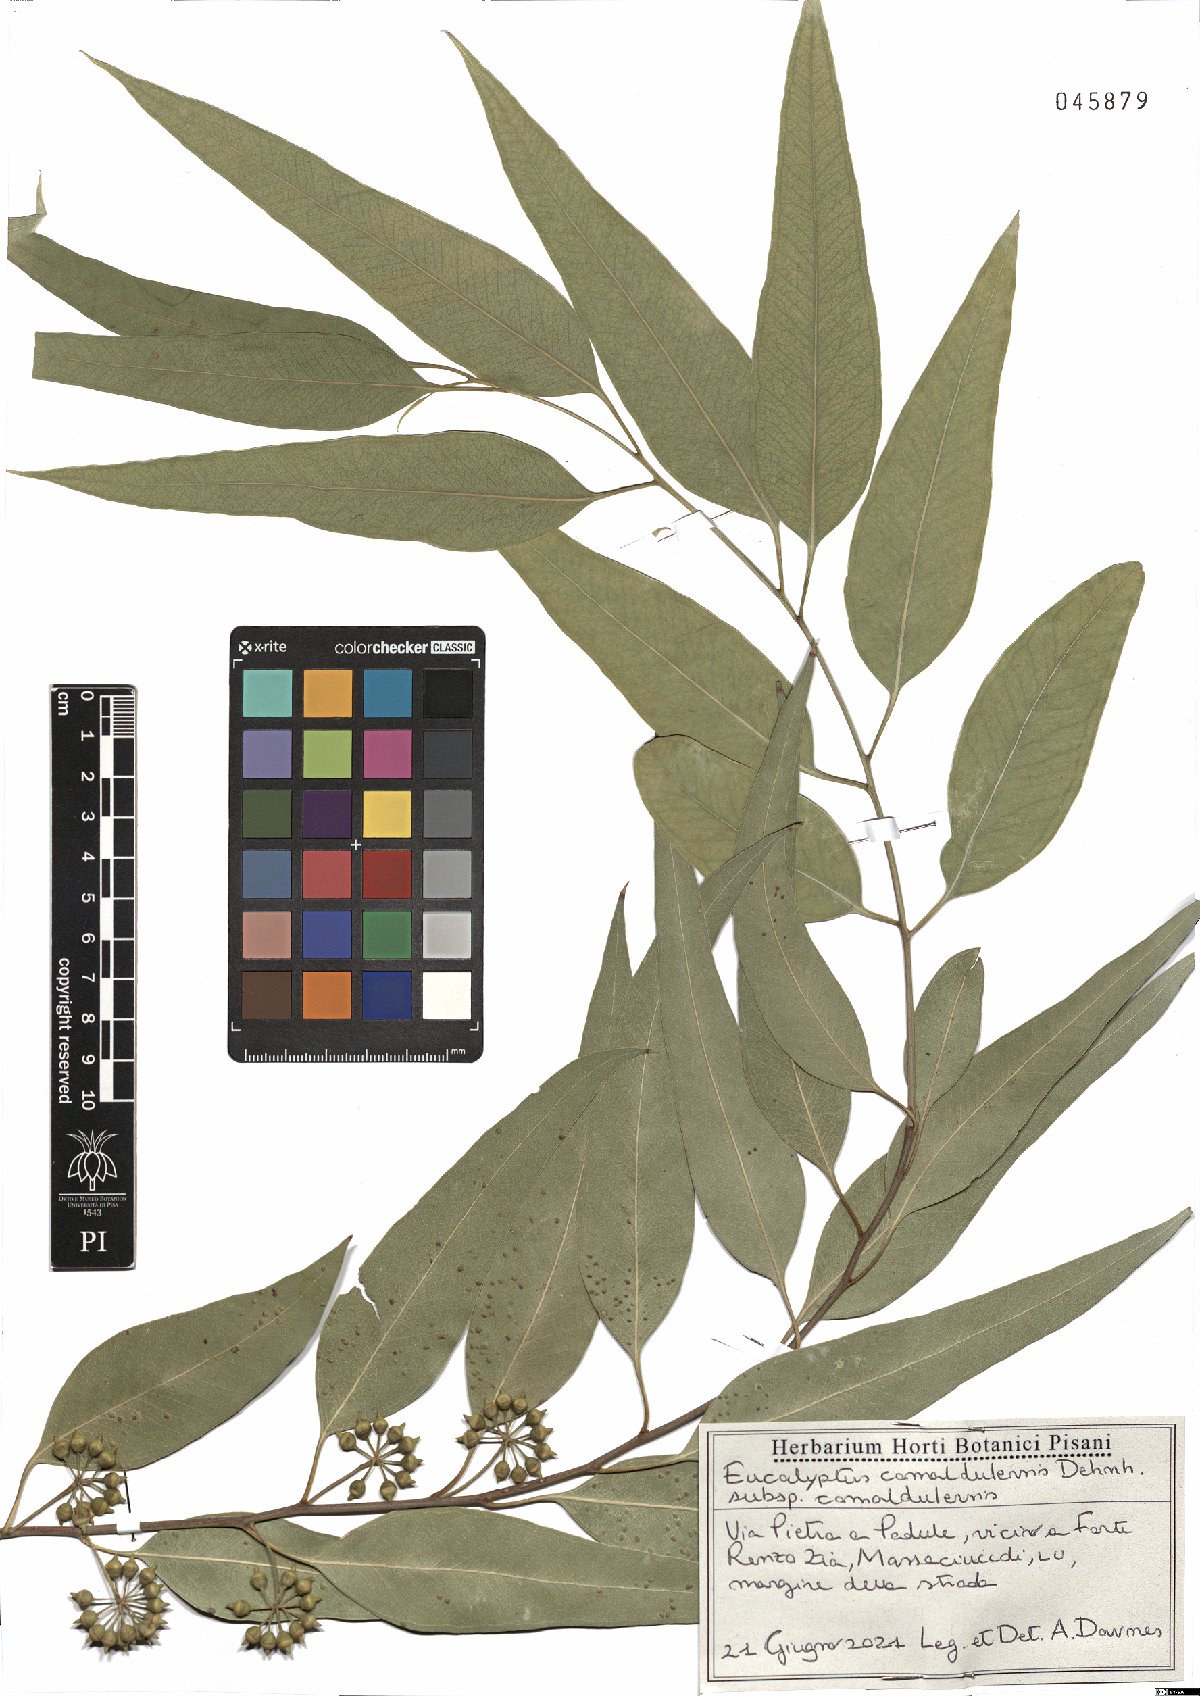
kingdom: Plantae
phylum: Tracheophyta
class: Magnoliopsida
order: Myrtales
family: Myrtaceae
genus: Eucalyptus
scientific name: Eucalyptus camaldulensis
